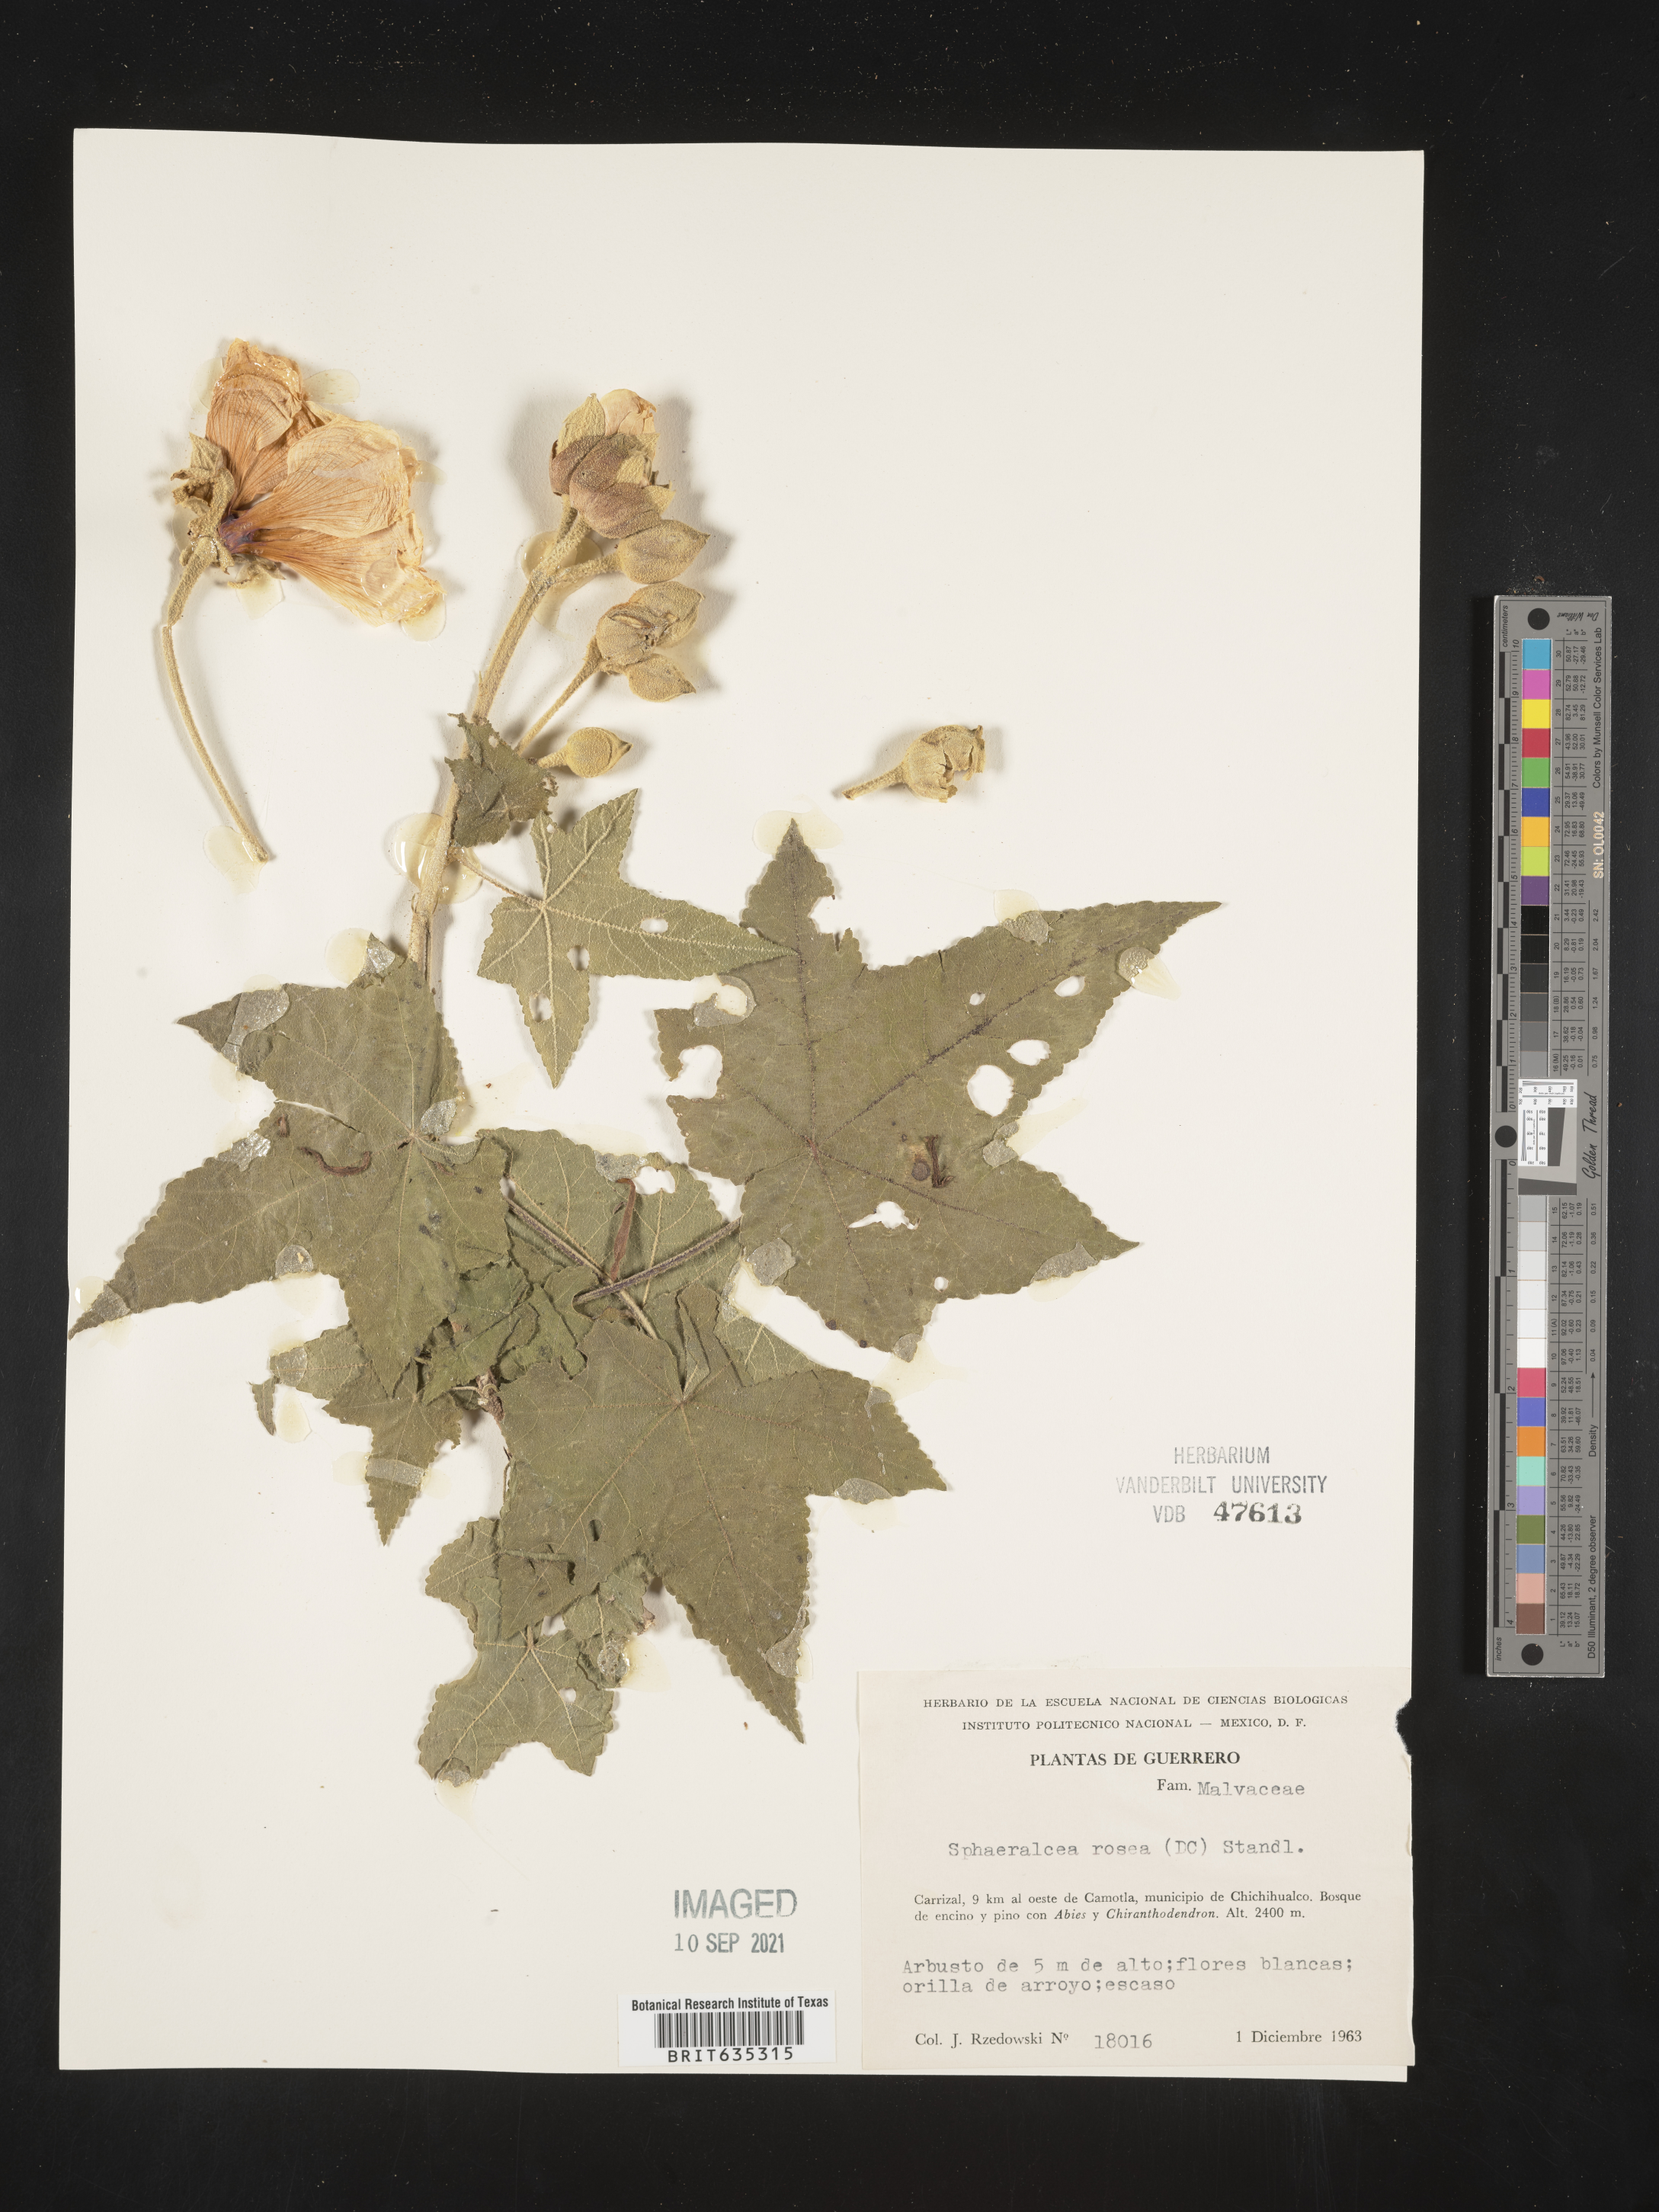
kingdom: Plantae
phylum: Tracheophyta
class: Magnoliopsida
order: Malvales
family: Malvaceae
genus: Sphaeralcea
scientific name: Sphaeralcea
